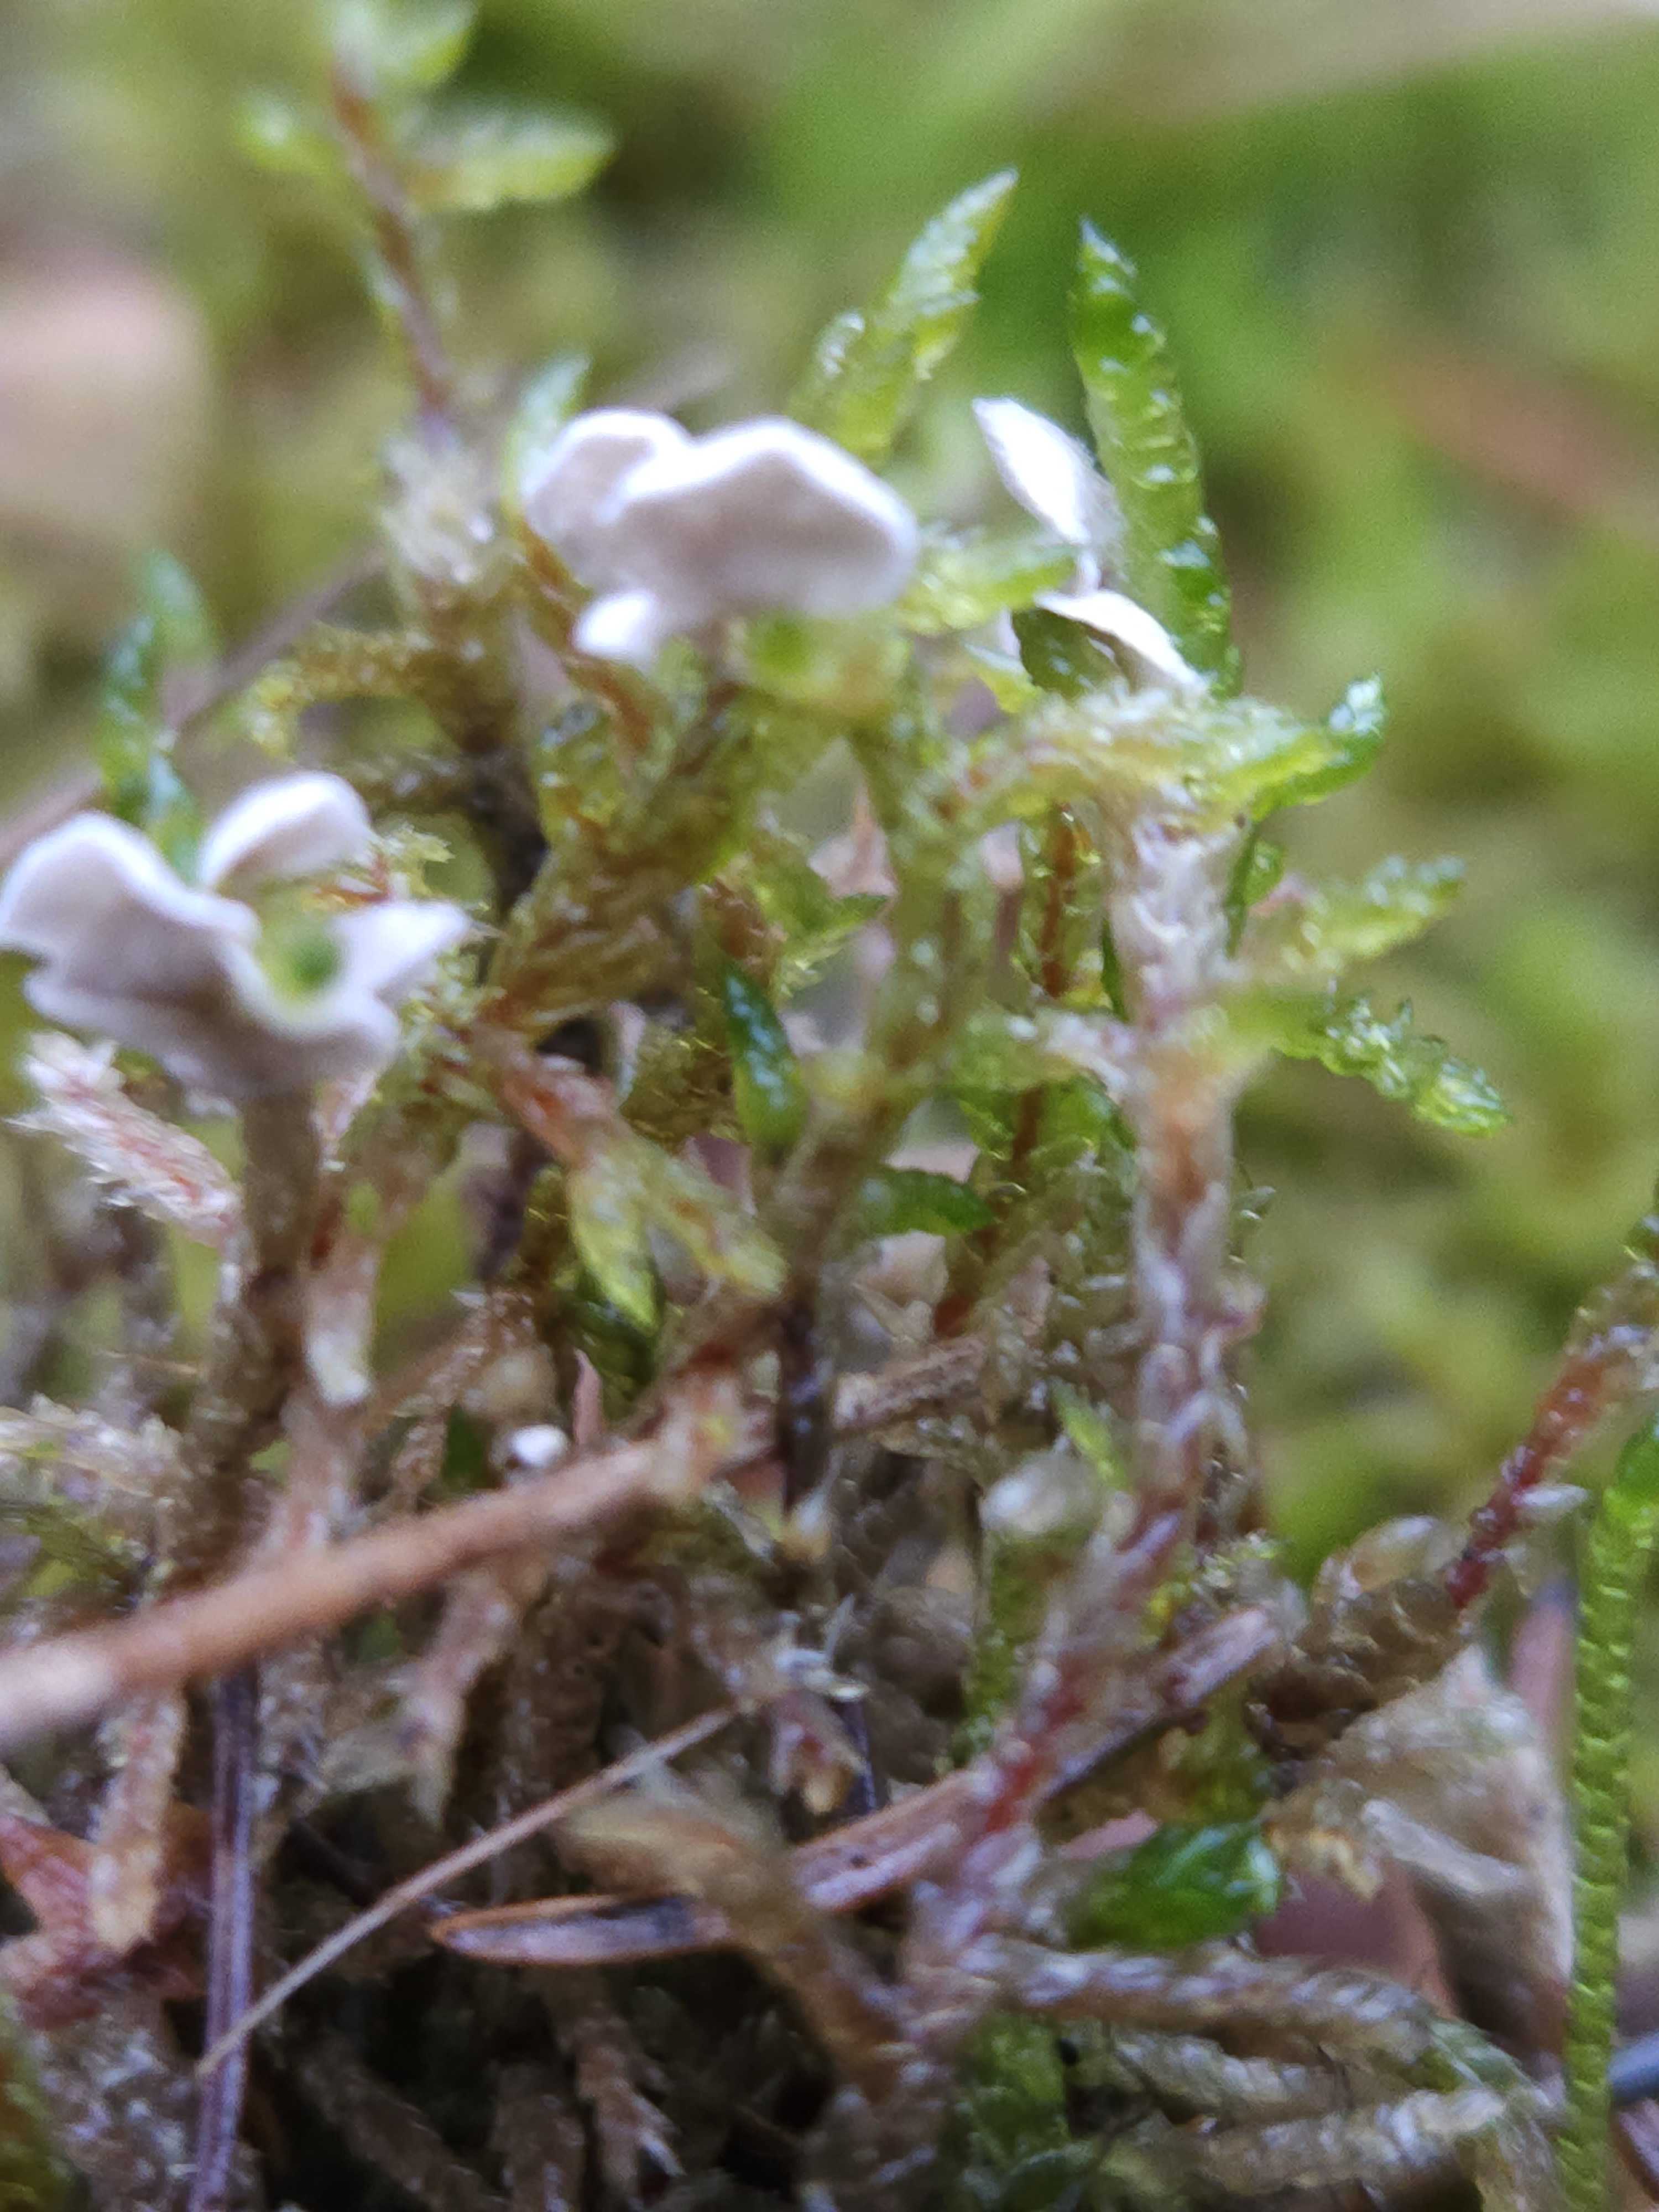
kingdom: Fungi
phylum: Basidiomycota
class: Agaricomycetes
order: Agaricales
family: Hygrophoraceae
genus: Arrhenia
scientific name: Arrhenia retiruga
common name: lille fontænehat
